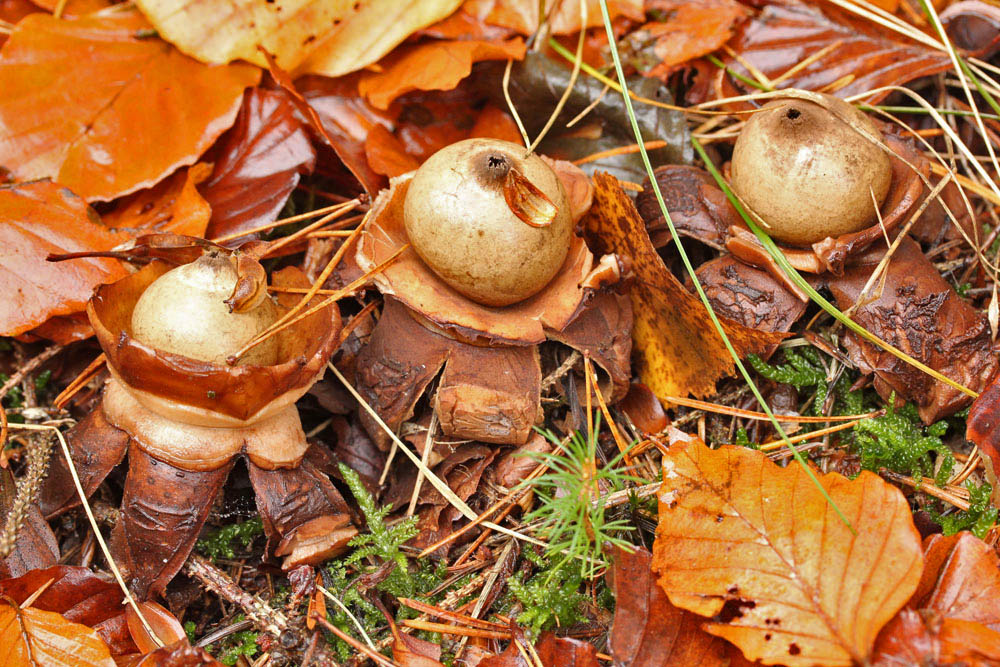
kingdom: Fungi
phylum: Basidiomycota
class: Agaricomycetes
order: Geastrales
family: Geastraceae
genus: Geastrum
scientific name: Geastrum michelianum
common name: kødet stjernebold
